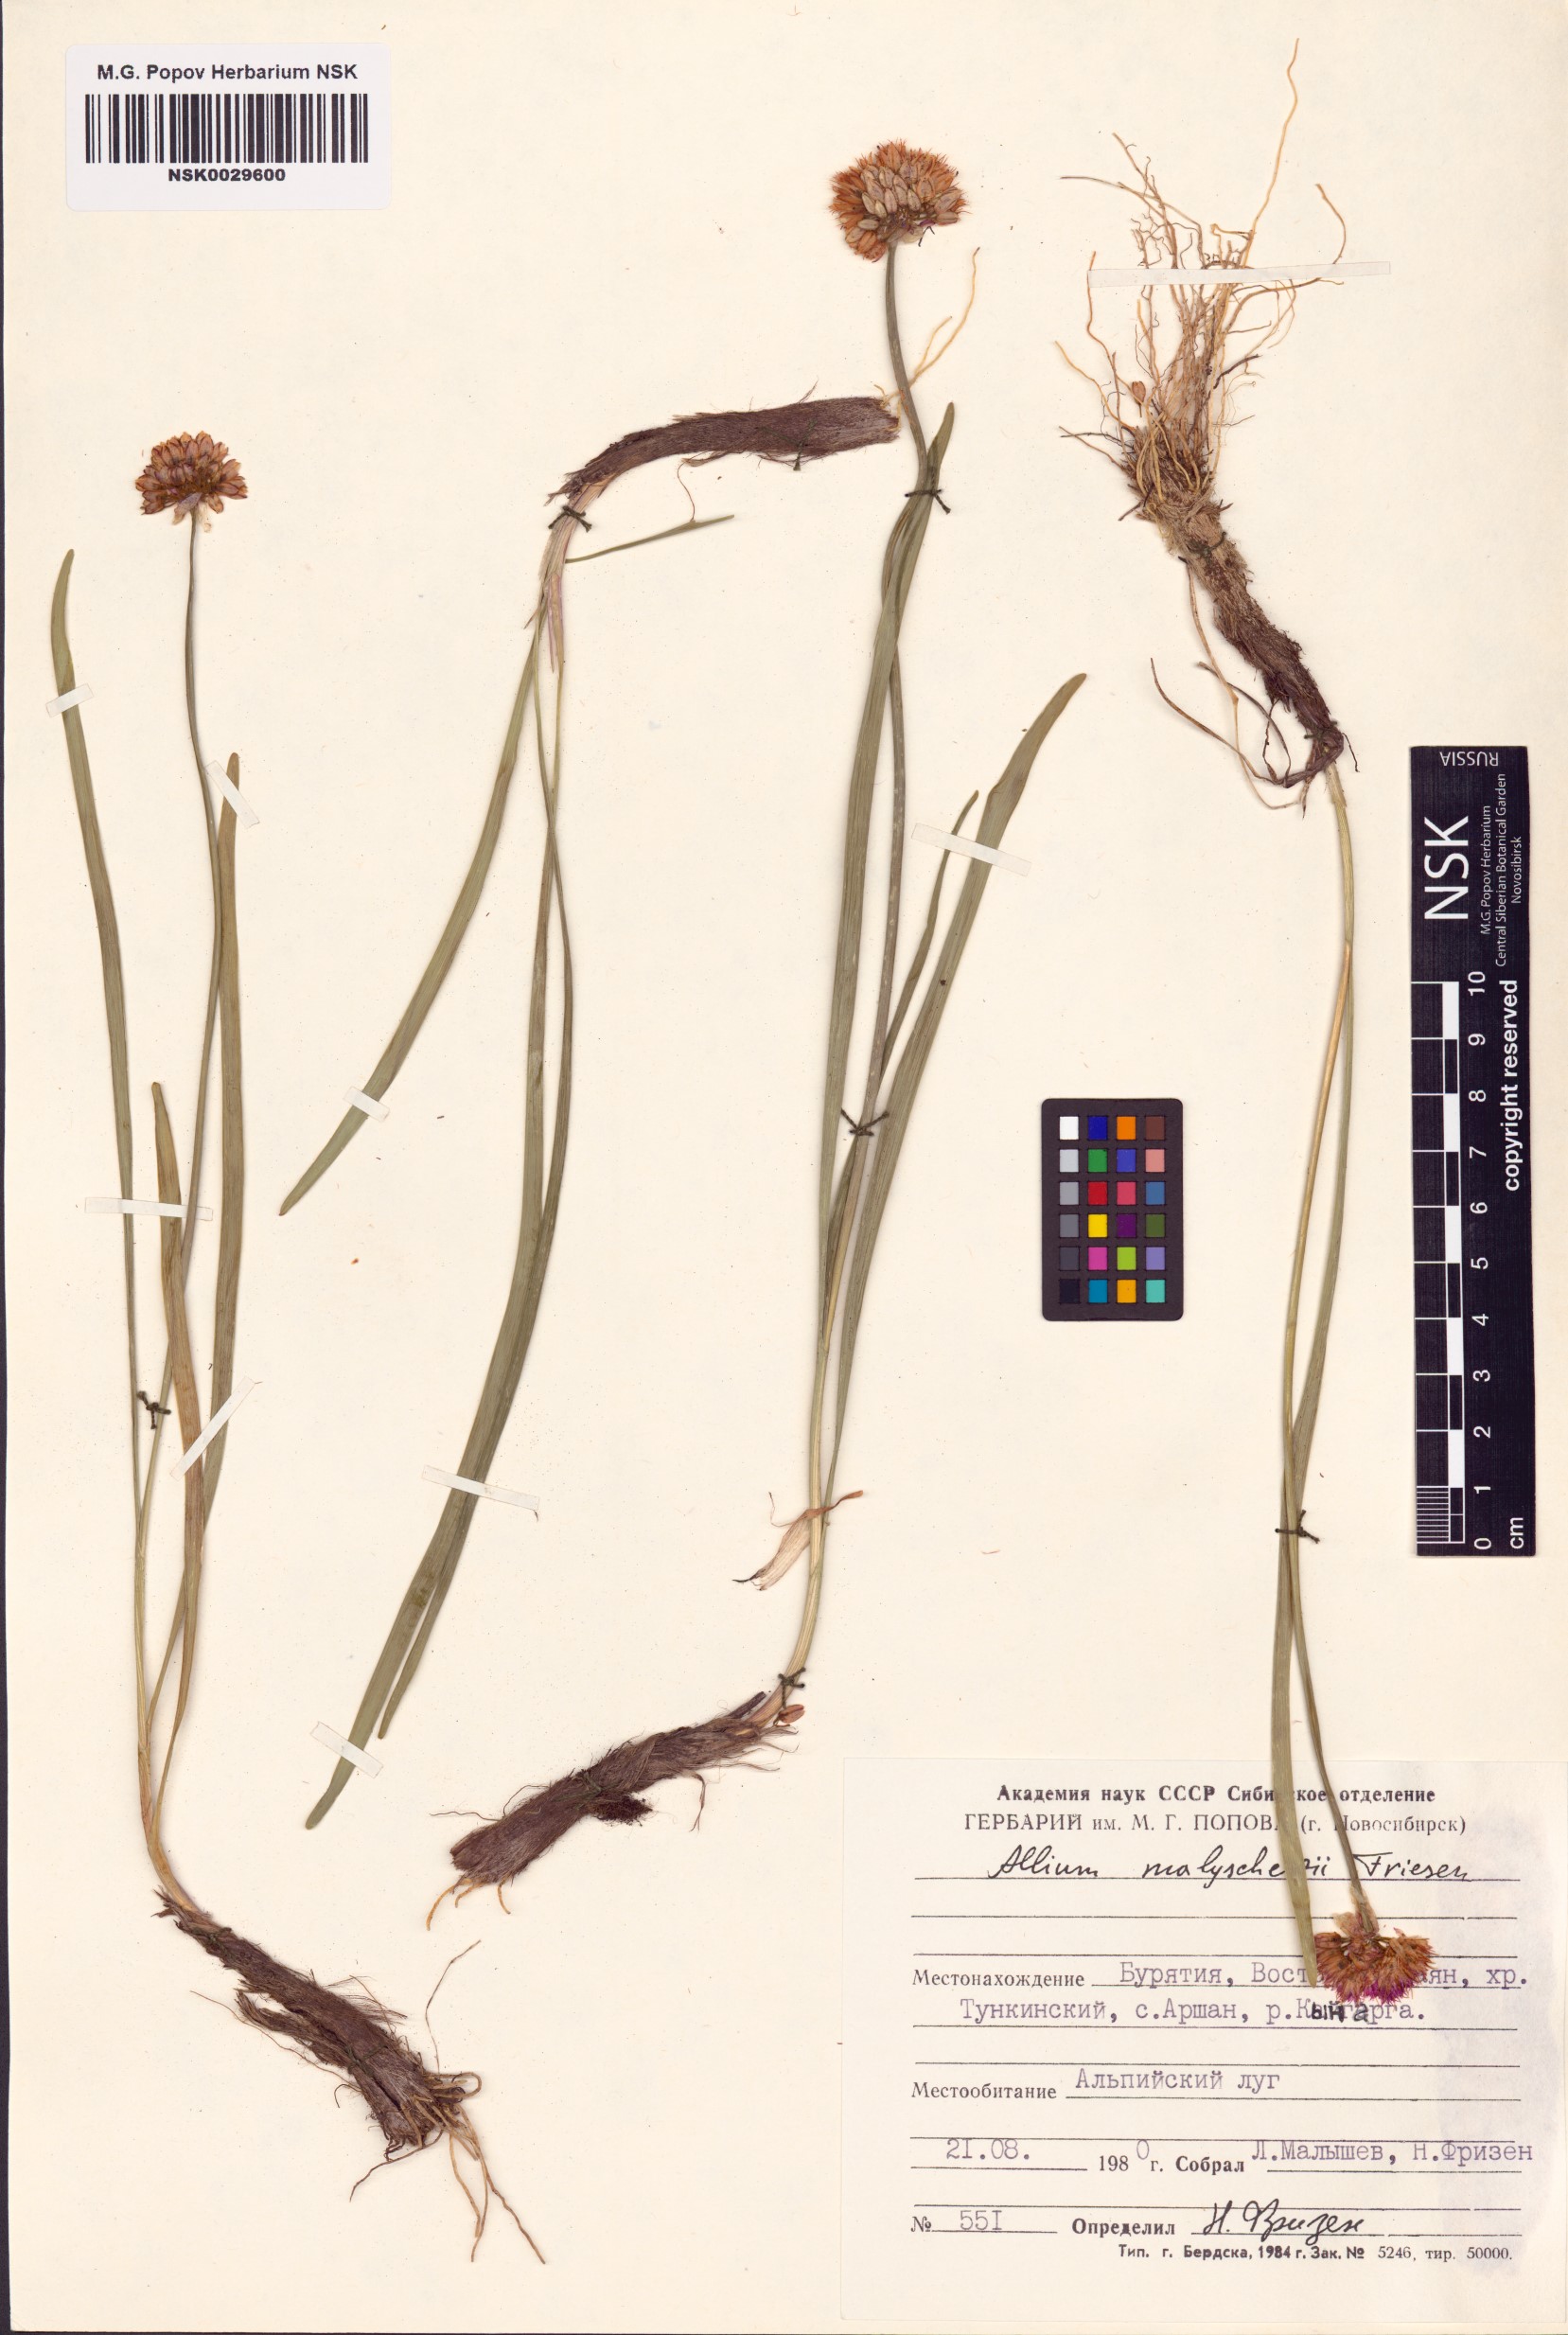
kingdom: Plantae
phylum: Tracheophyta
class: Liliopsida
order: Asparagales
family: Amaryllidaceae
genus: Allium
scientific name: Allium malyschevii
